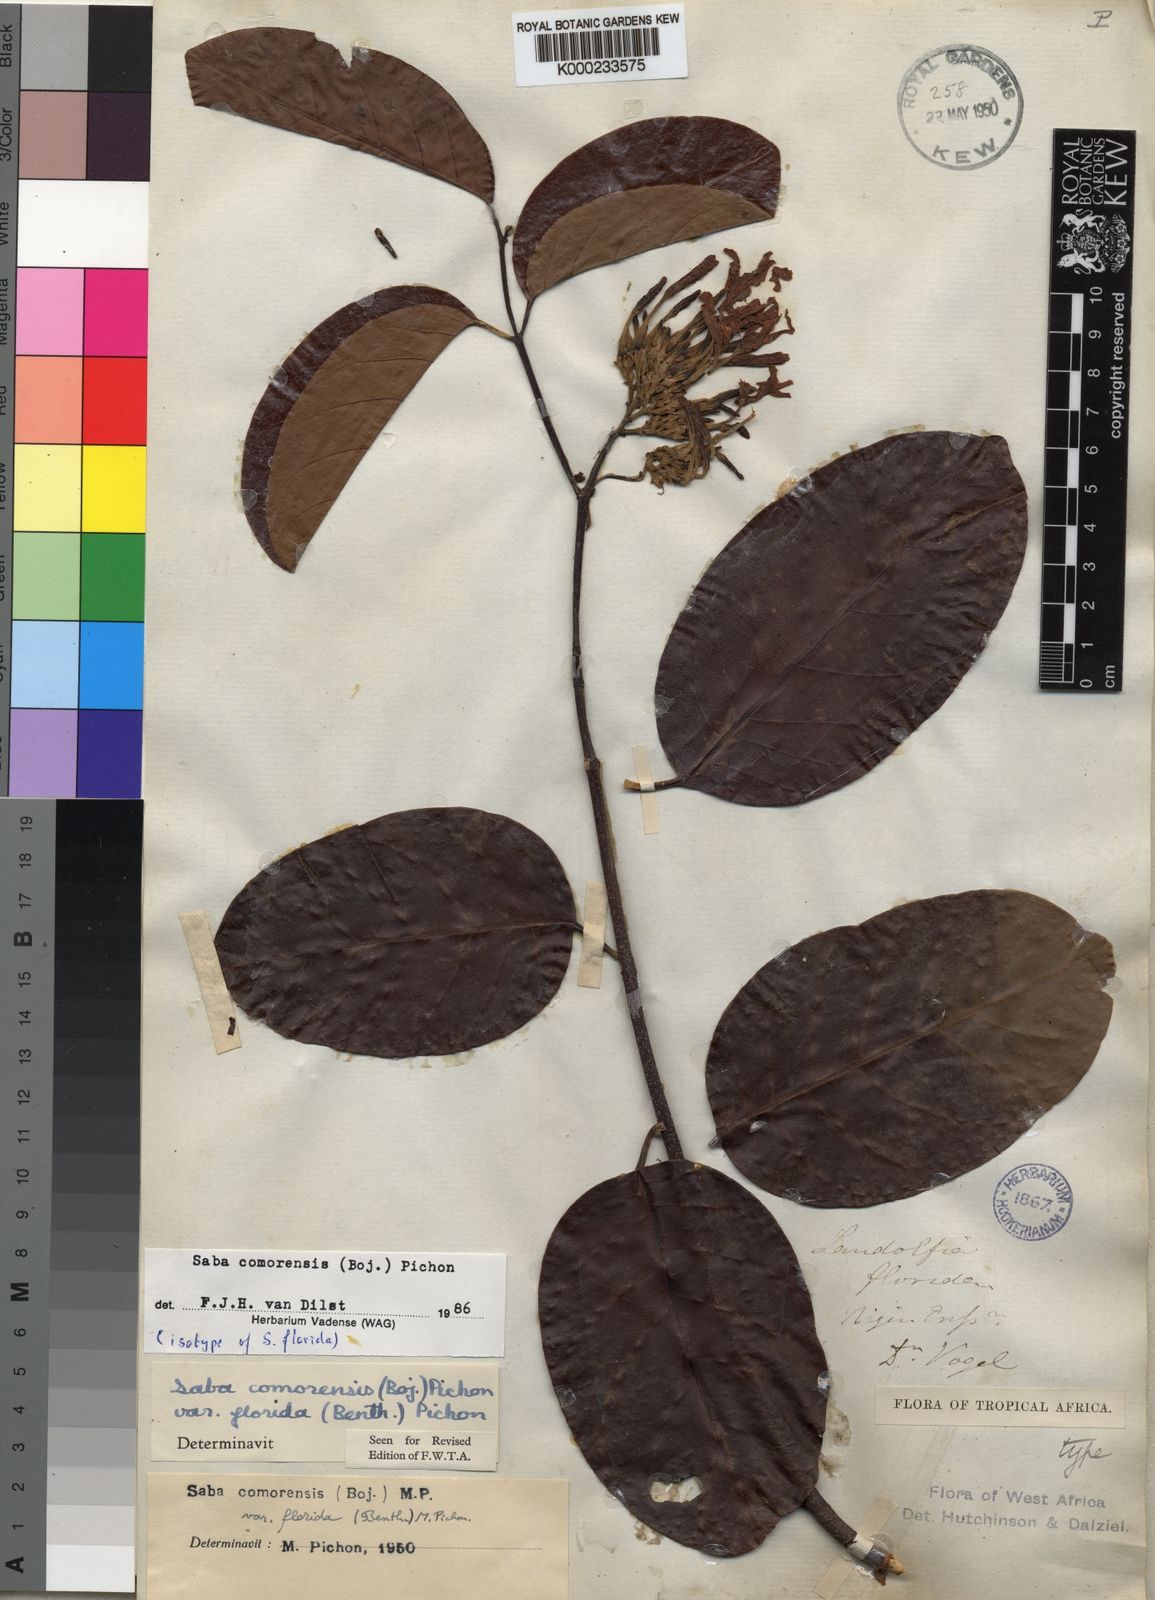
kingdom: Plantae
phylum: Tracheophyta
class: Magnoliopsida
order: Gentianales
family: Apocynaceae
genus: Saba
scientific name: Saba comorensis
